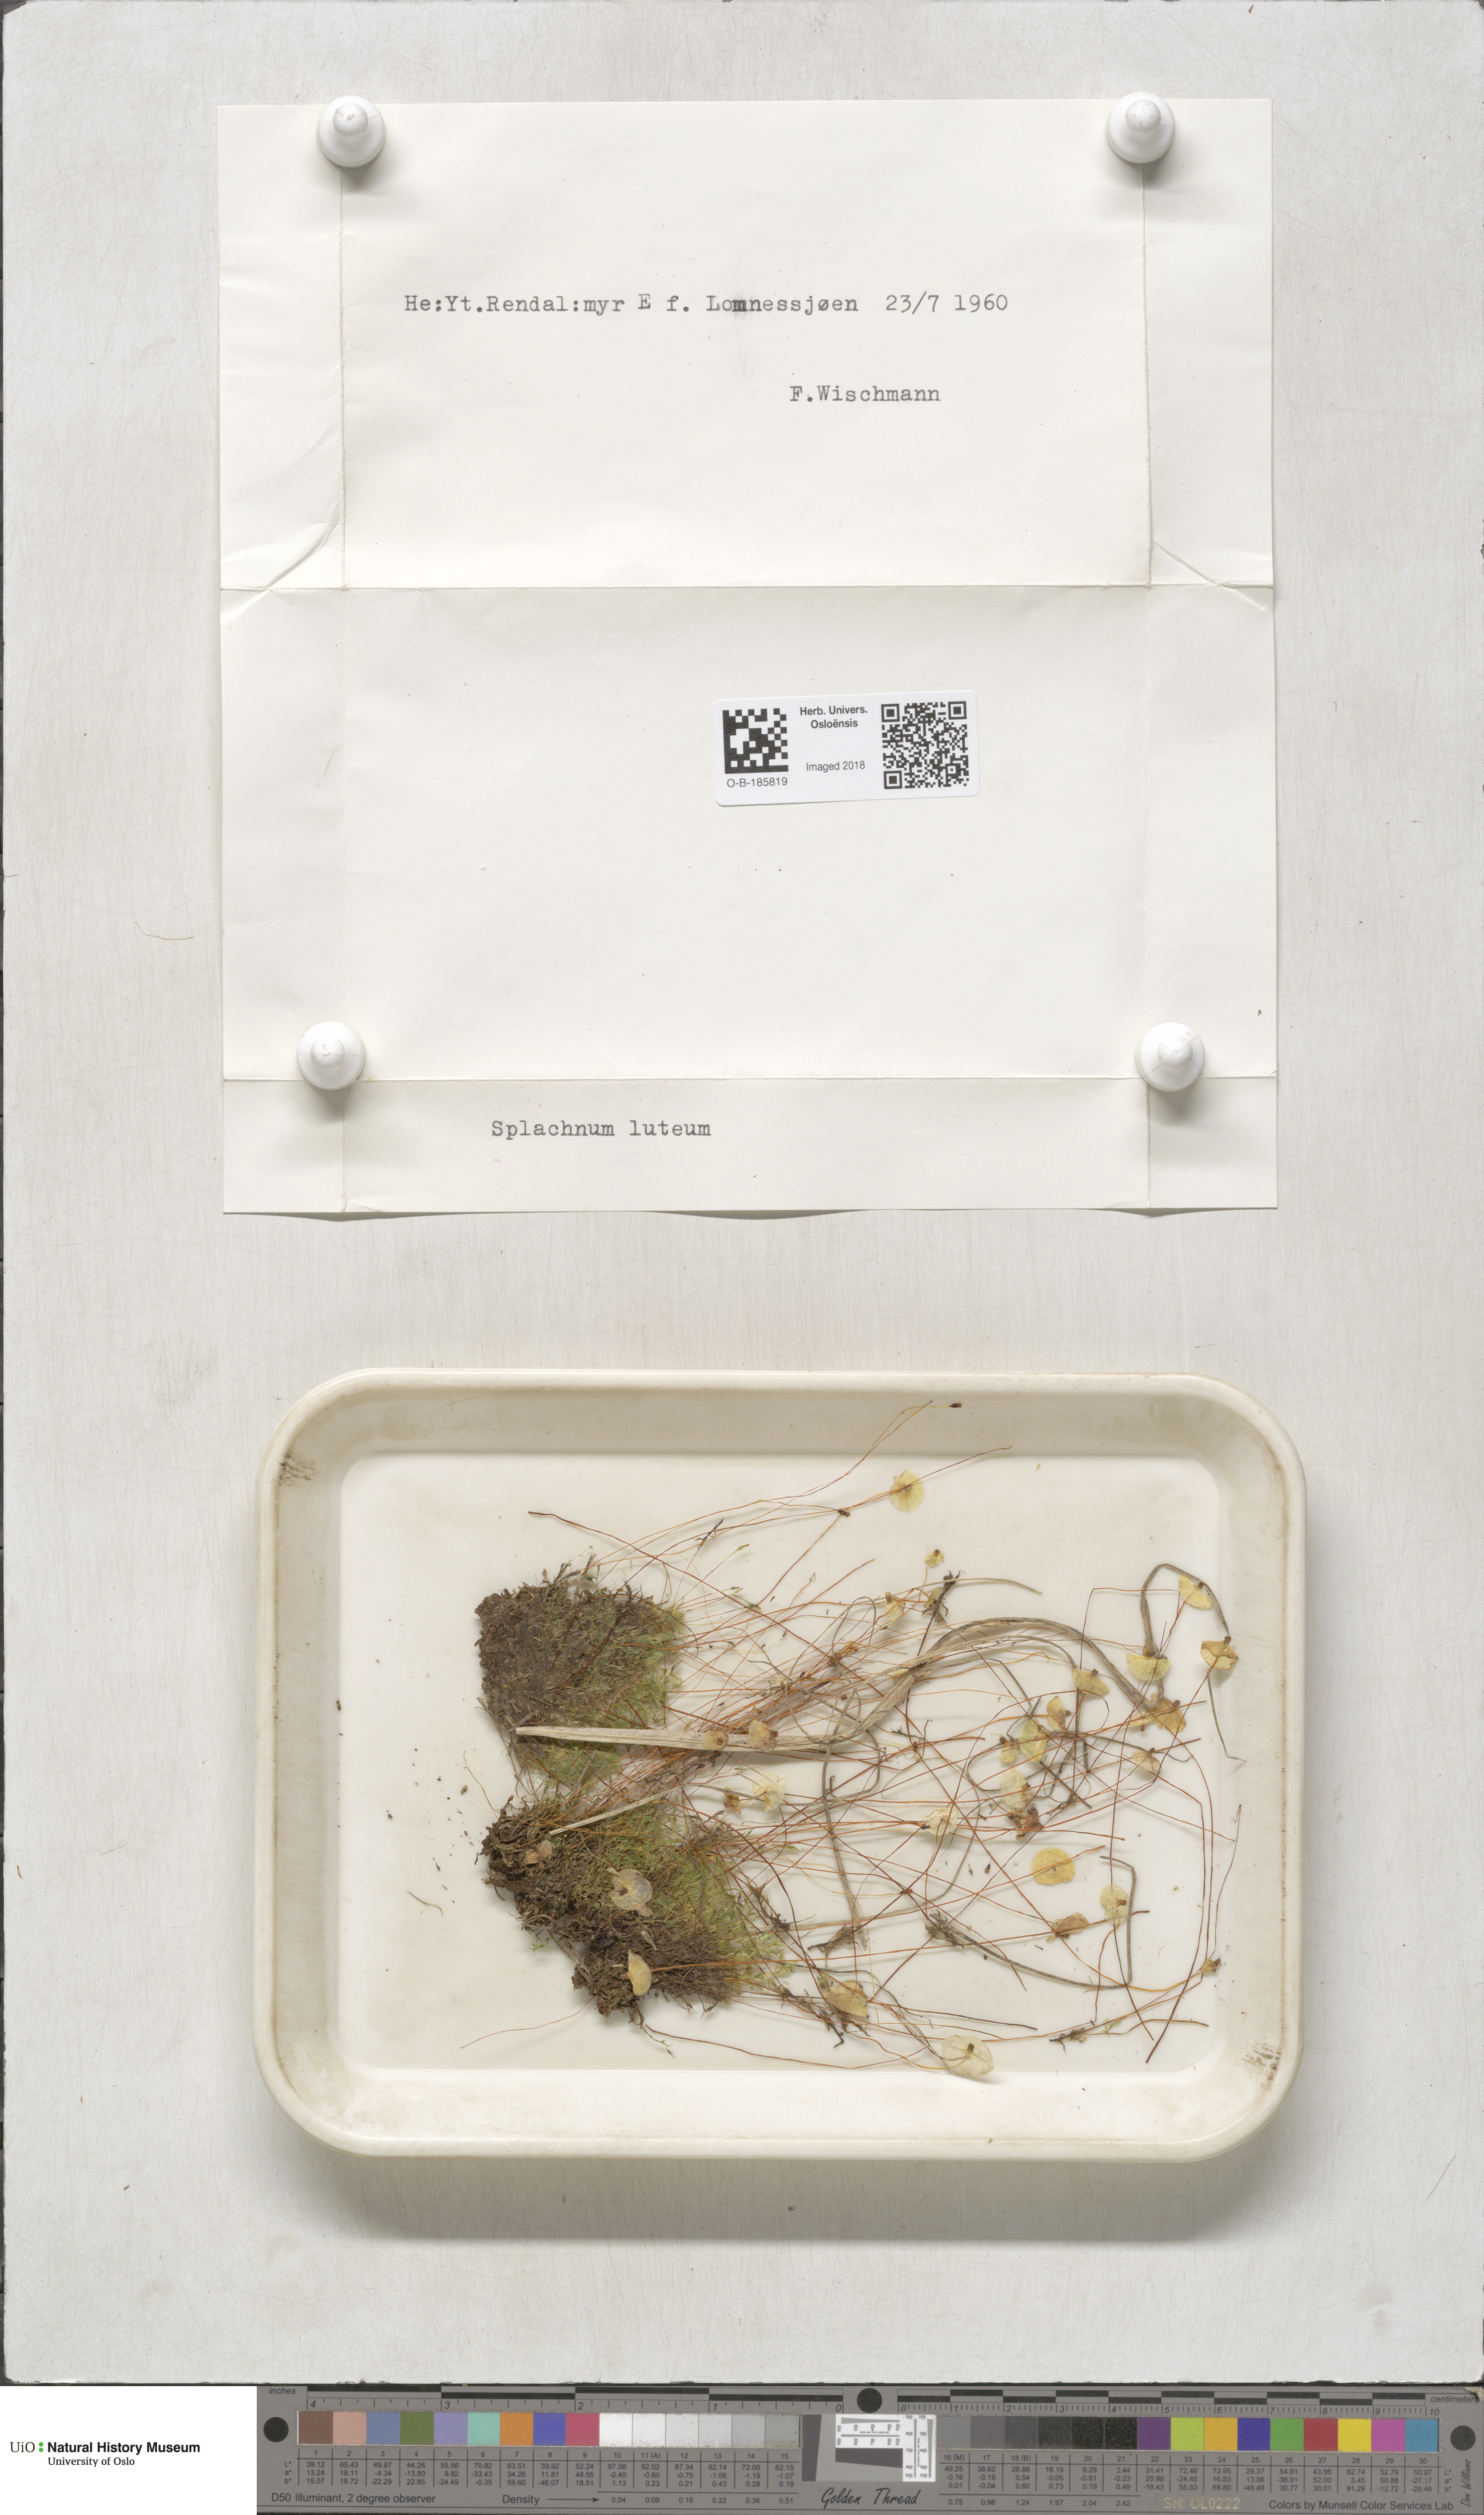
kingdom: Plantae
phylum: Bryophyta
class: Bryopsida
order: Splachnales
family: Splachnaceae
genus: Splachnum
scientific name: Splachnum luteum
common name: Yellow dung moss
